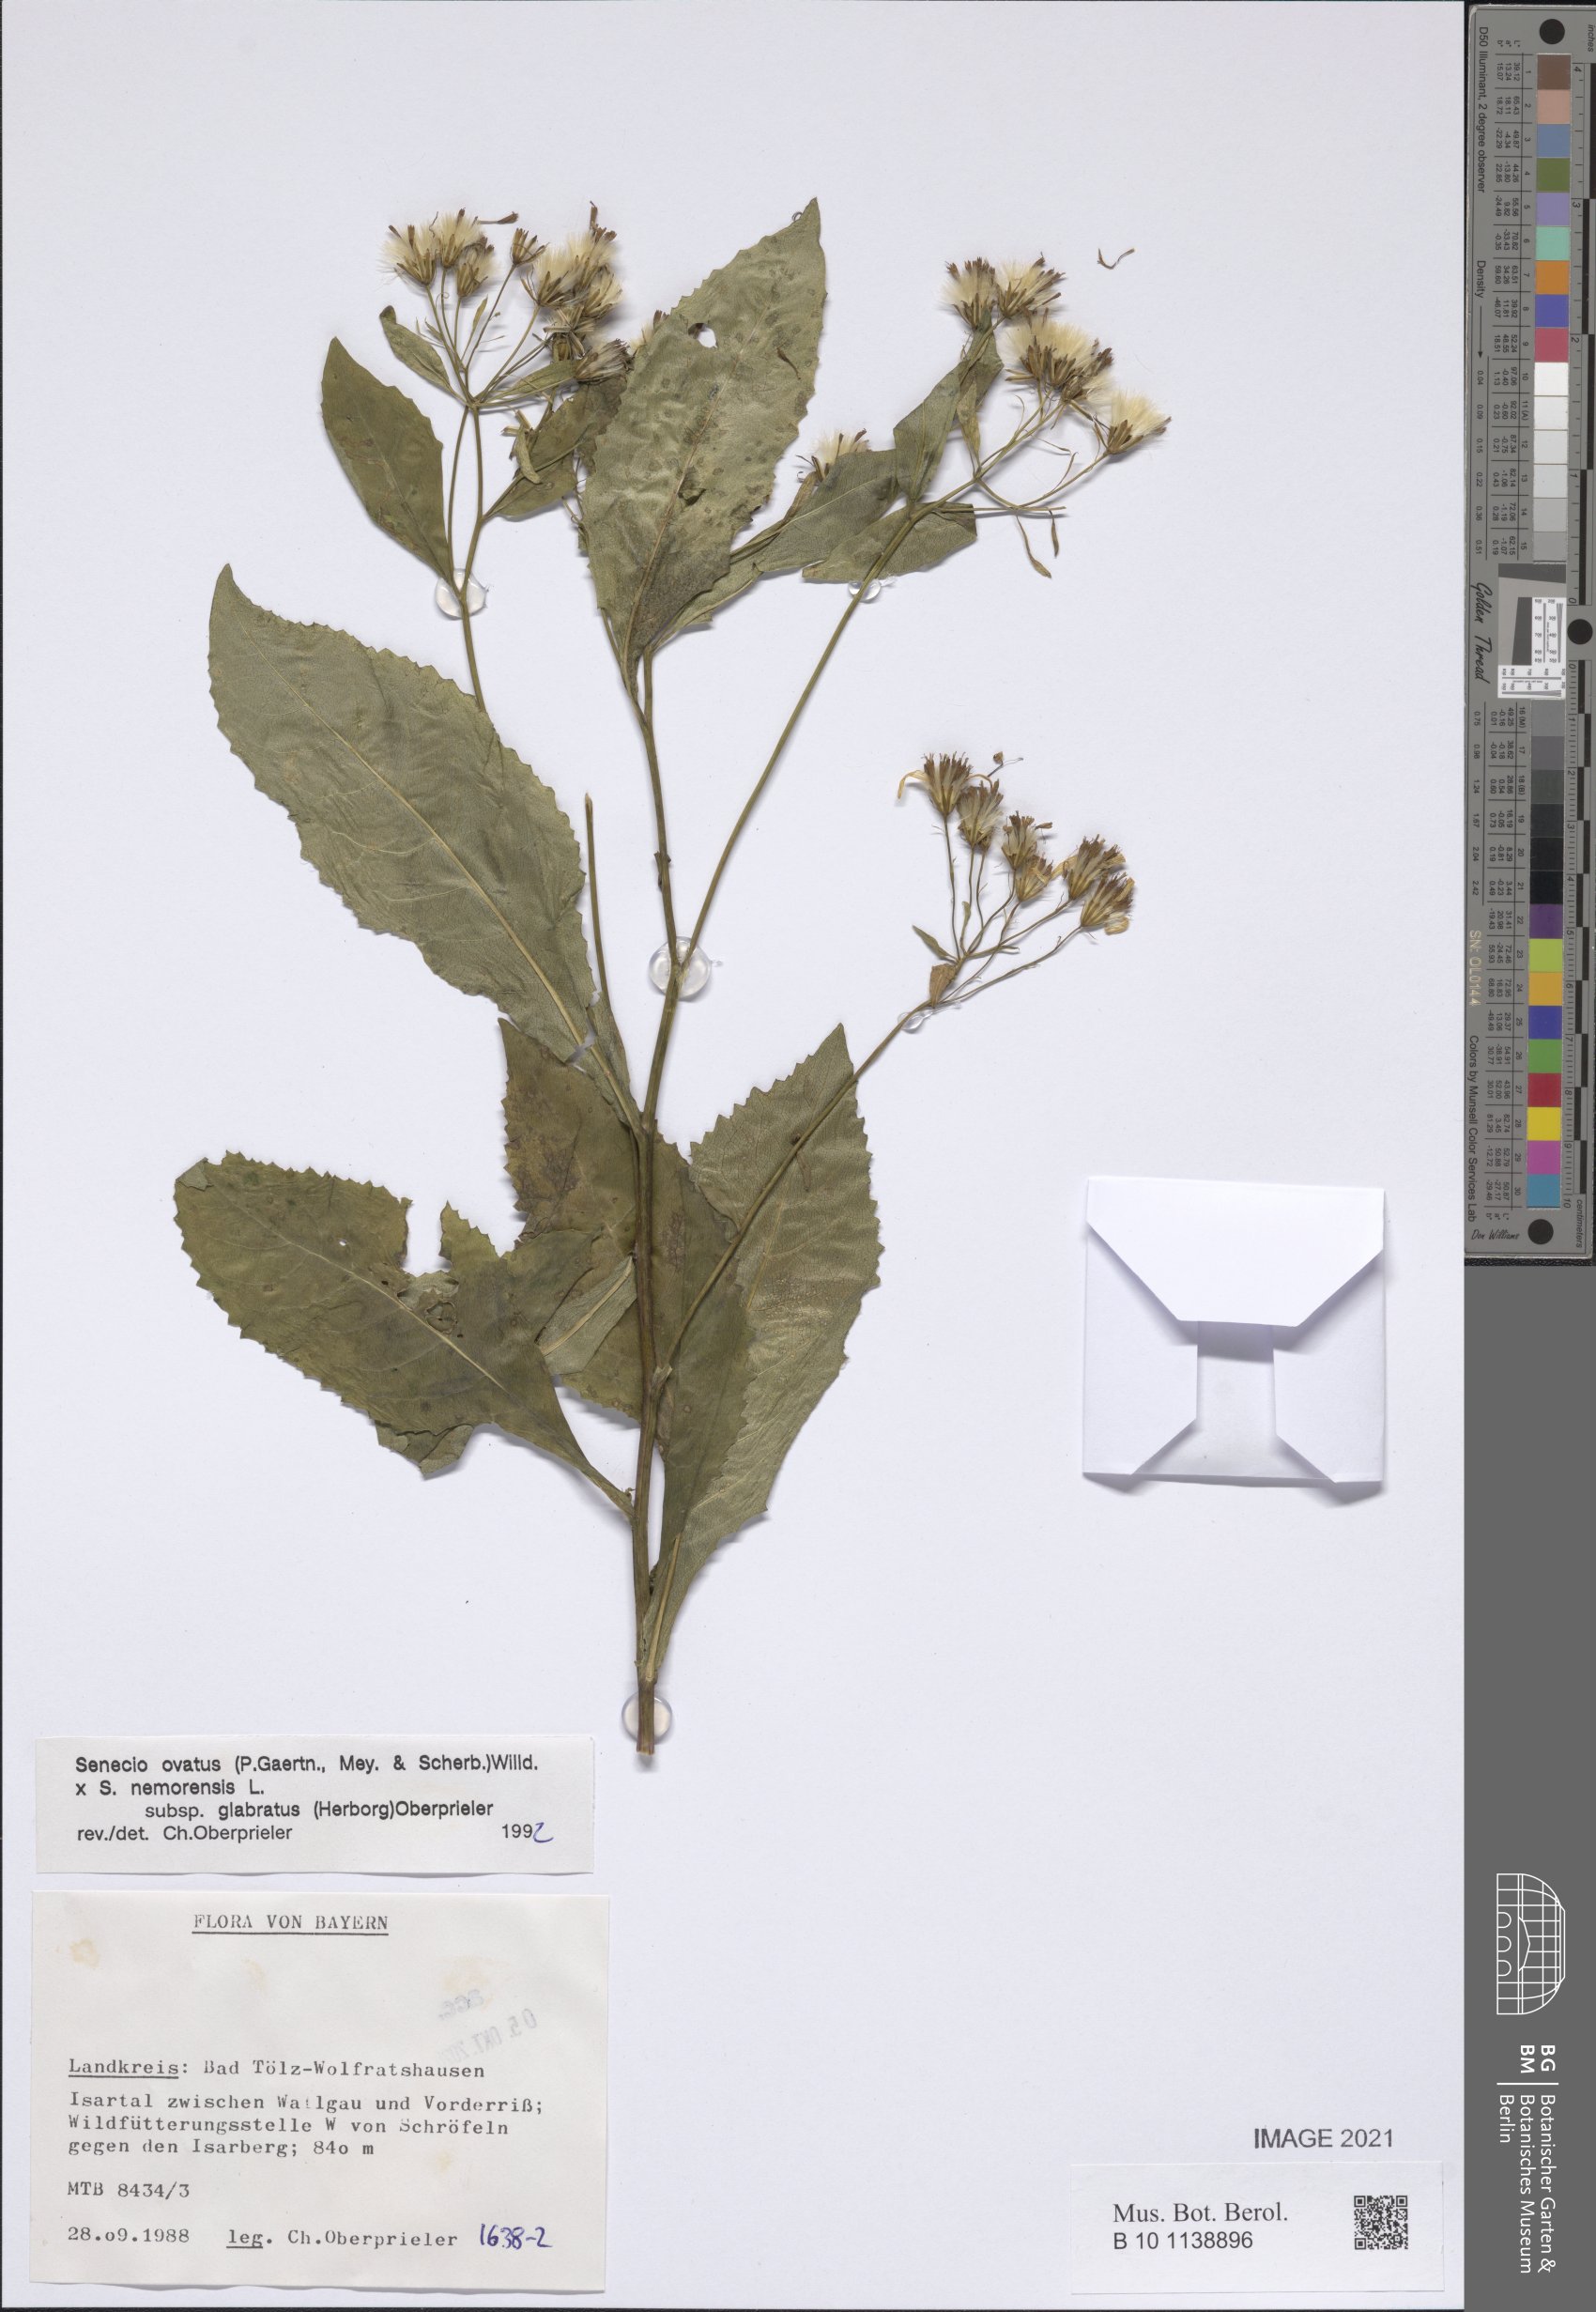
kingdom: Plantae
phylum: Tracheophyta
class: Magnoliopsida
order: Asterales
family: Asteraceae
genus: Senecio
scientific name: Senecio ovatus
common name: Wood ragwort
